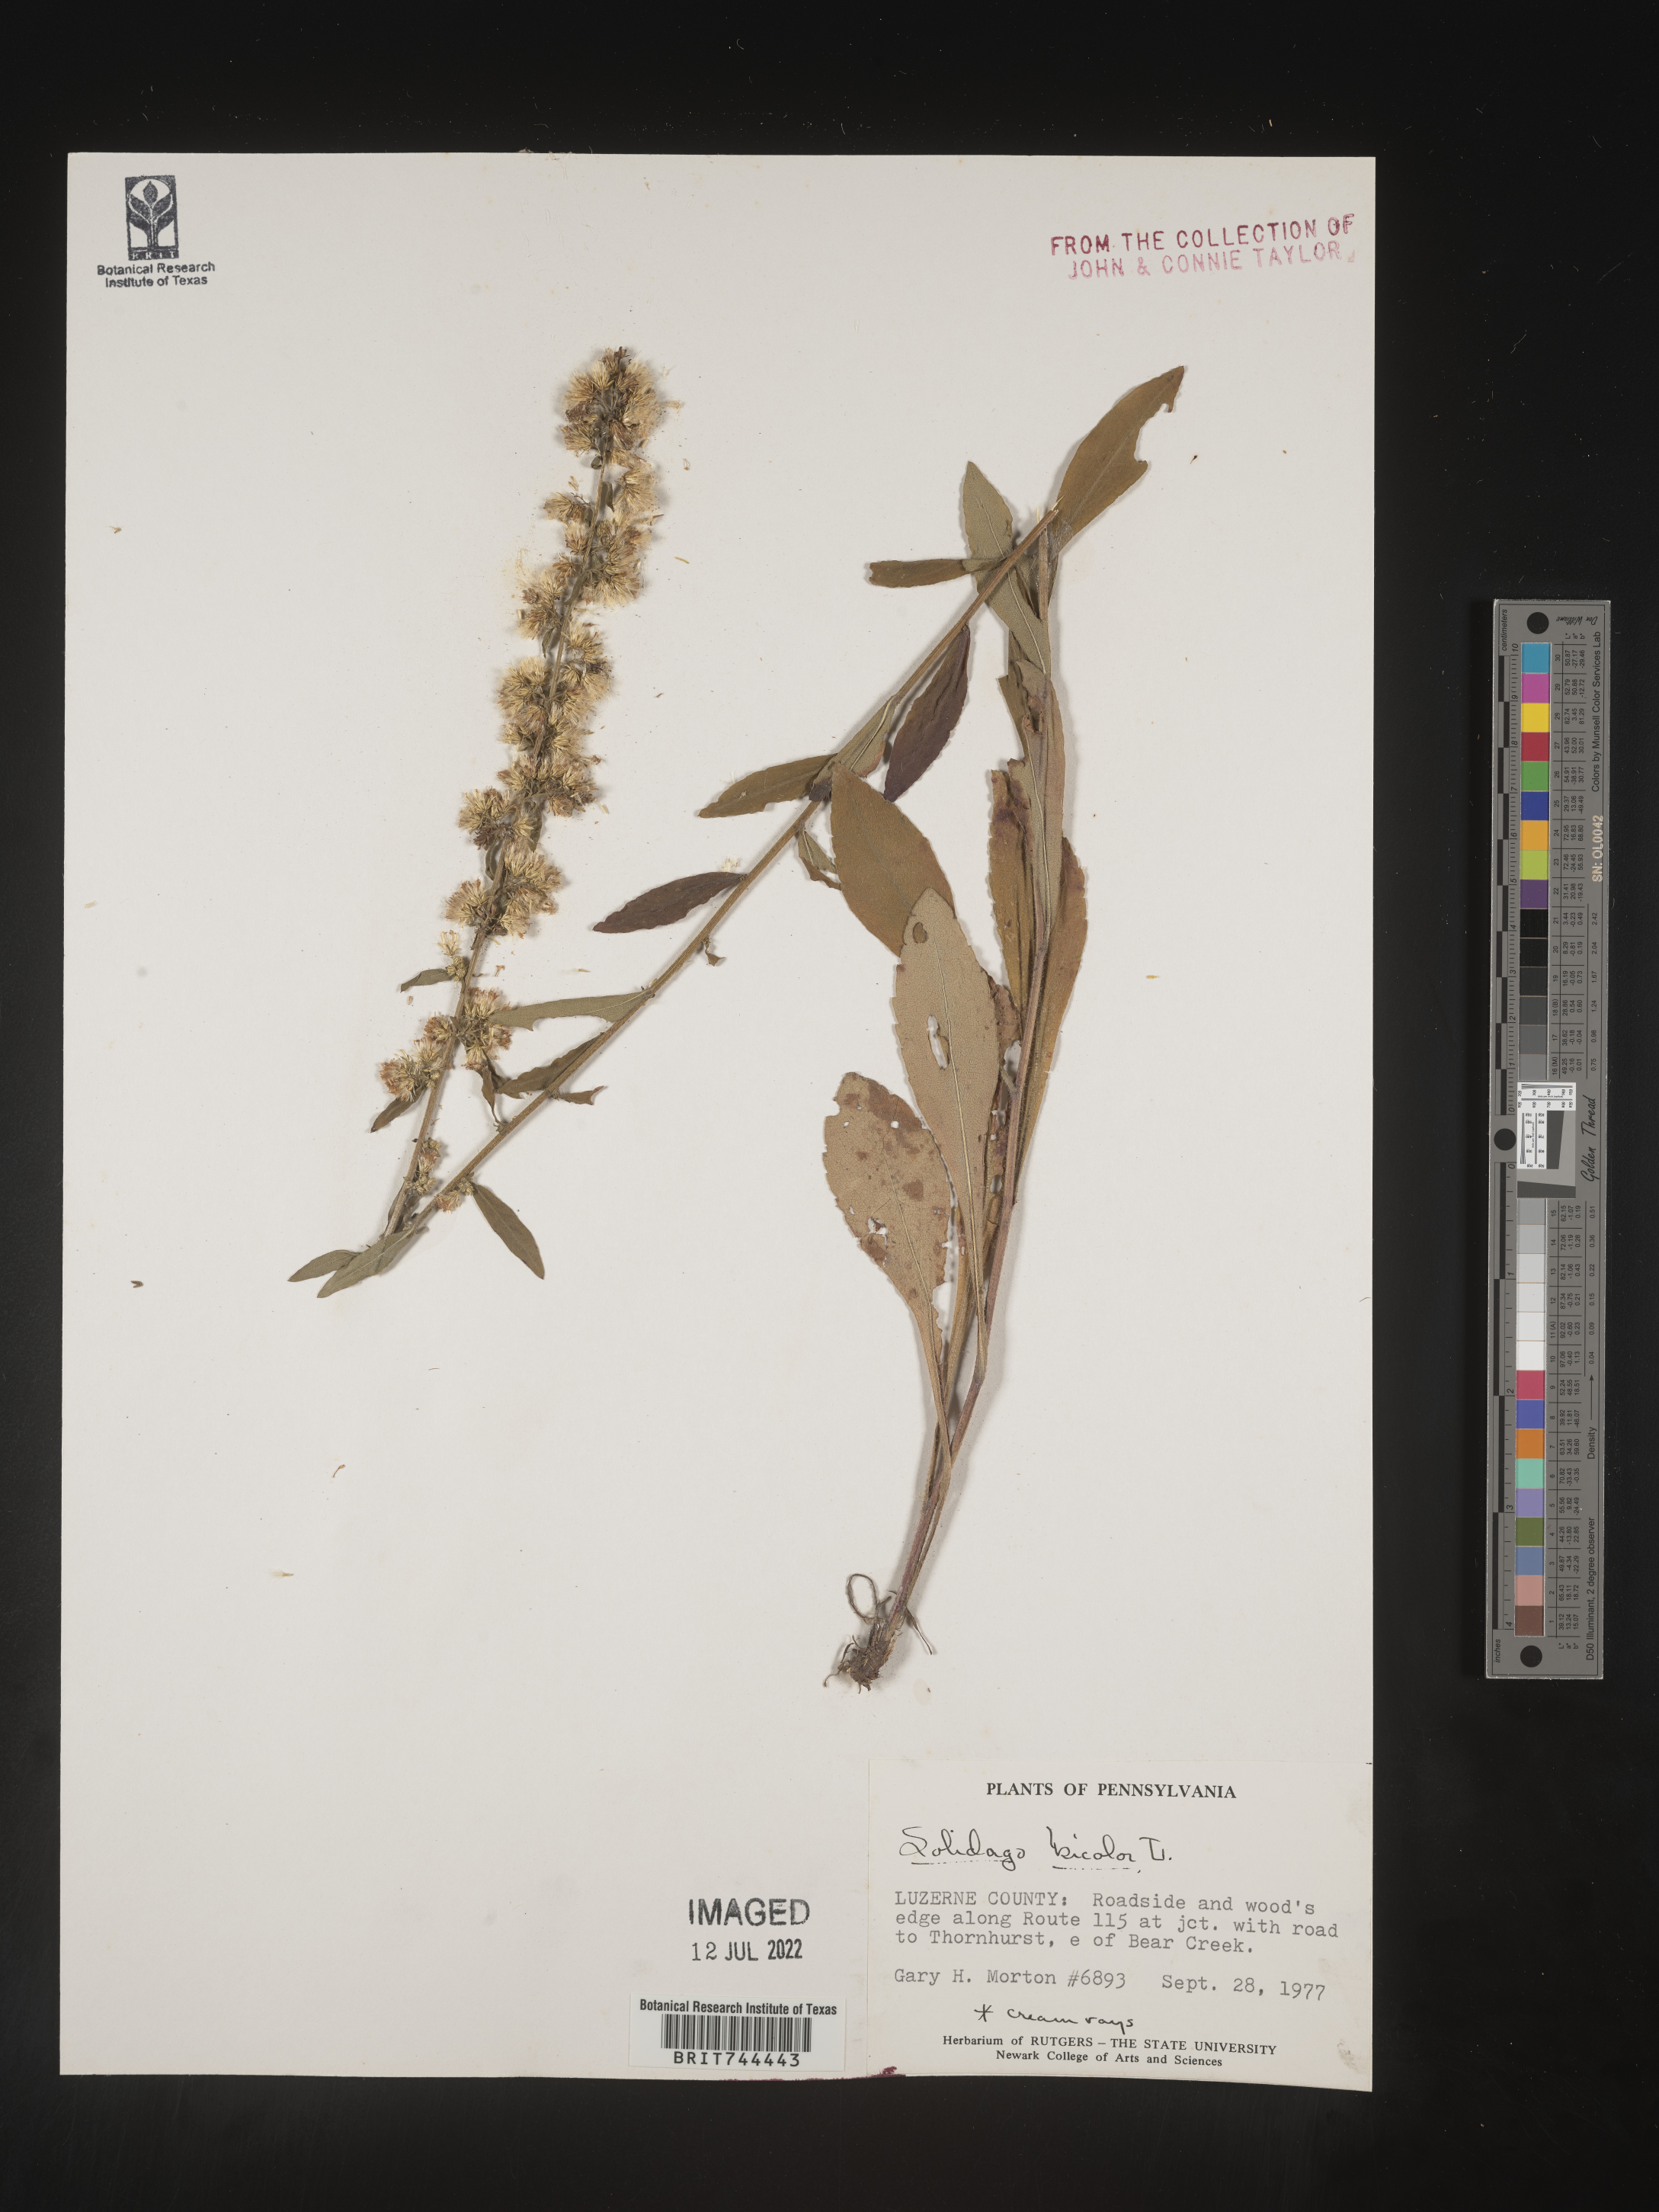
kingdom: Plantae
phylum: Tracheophyta
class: Magnoliopsida
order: Asterales
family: Asteraceae
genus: Solidago
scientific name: Solidago bicolor
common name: Silverrod
